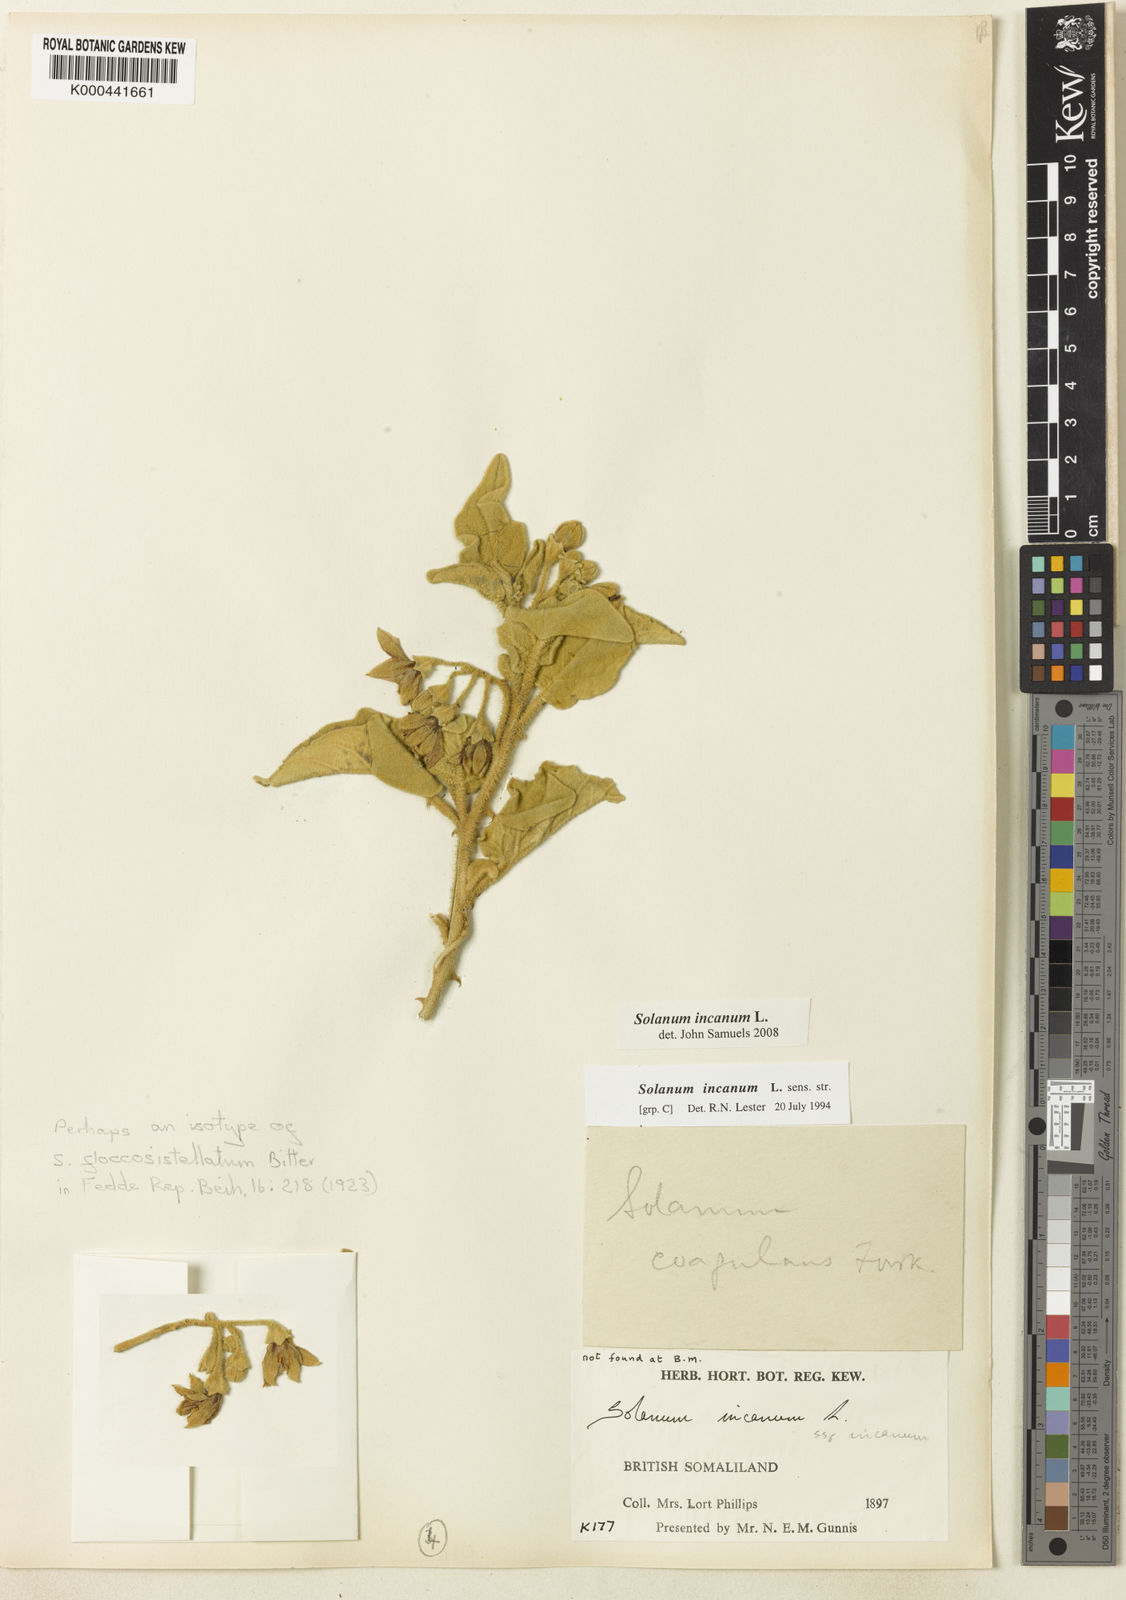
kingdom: Plantae
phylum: Tracheophyta
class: Magnoliopsida
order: Solanales
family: Solanaceae
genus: Solanum
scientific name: Solanum incanum
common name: Bitter apple
